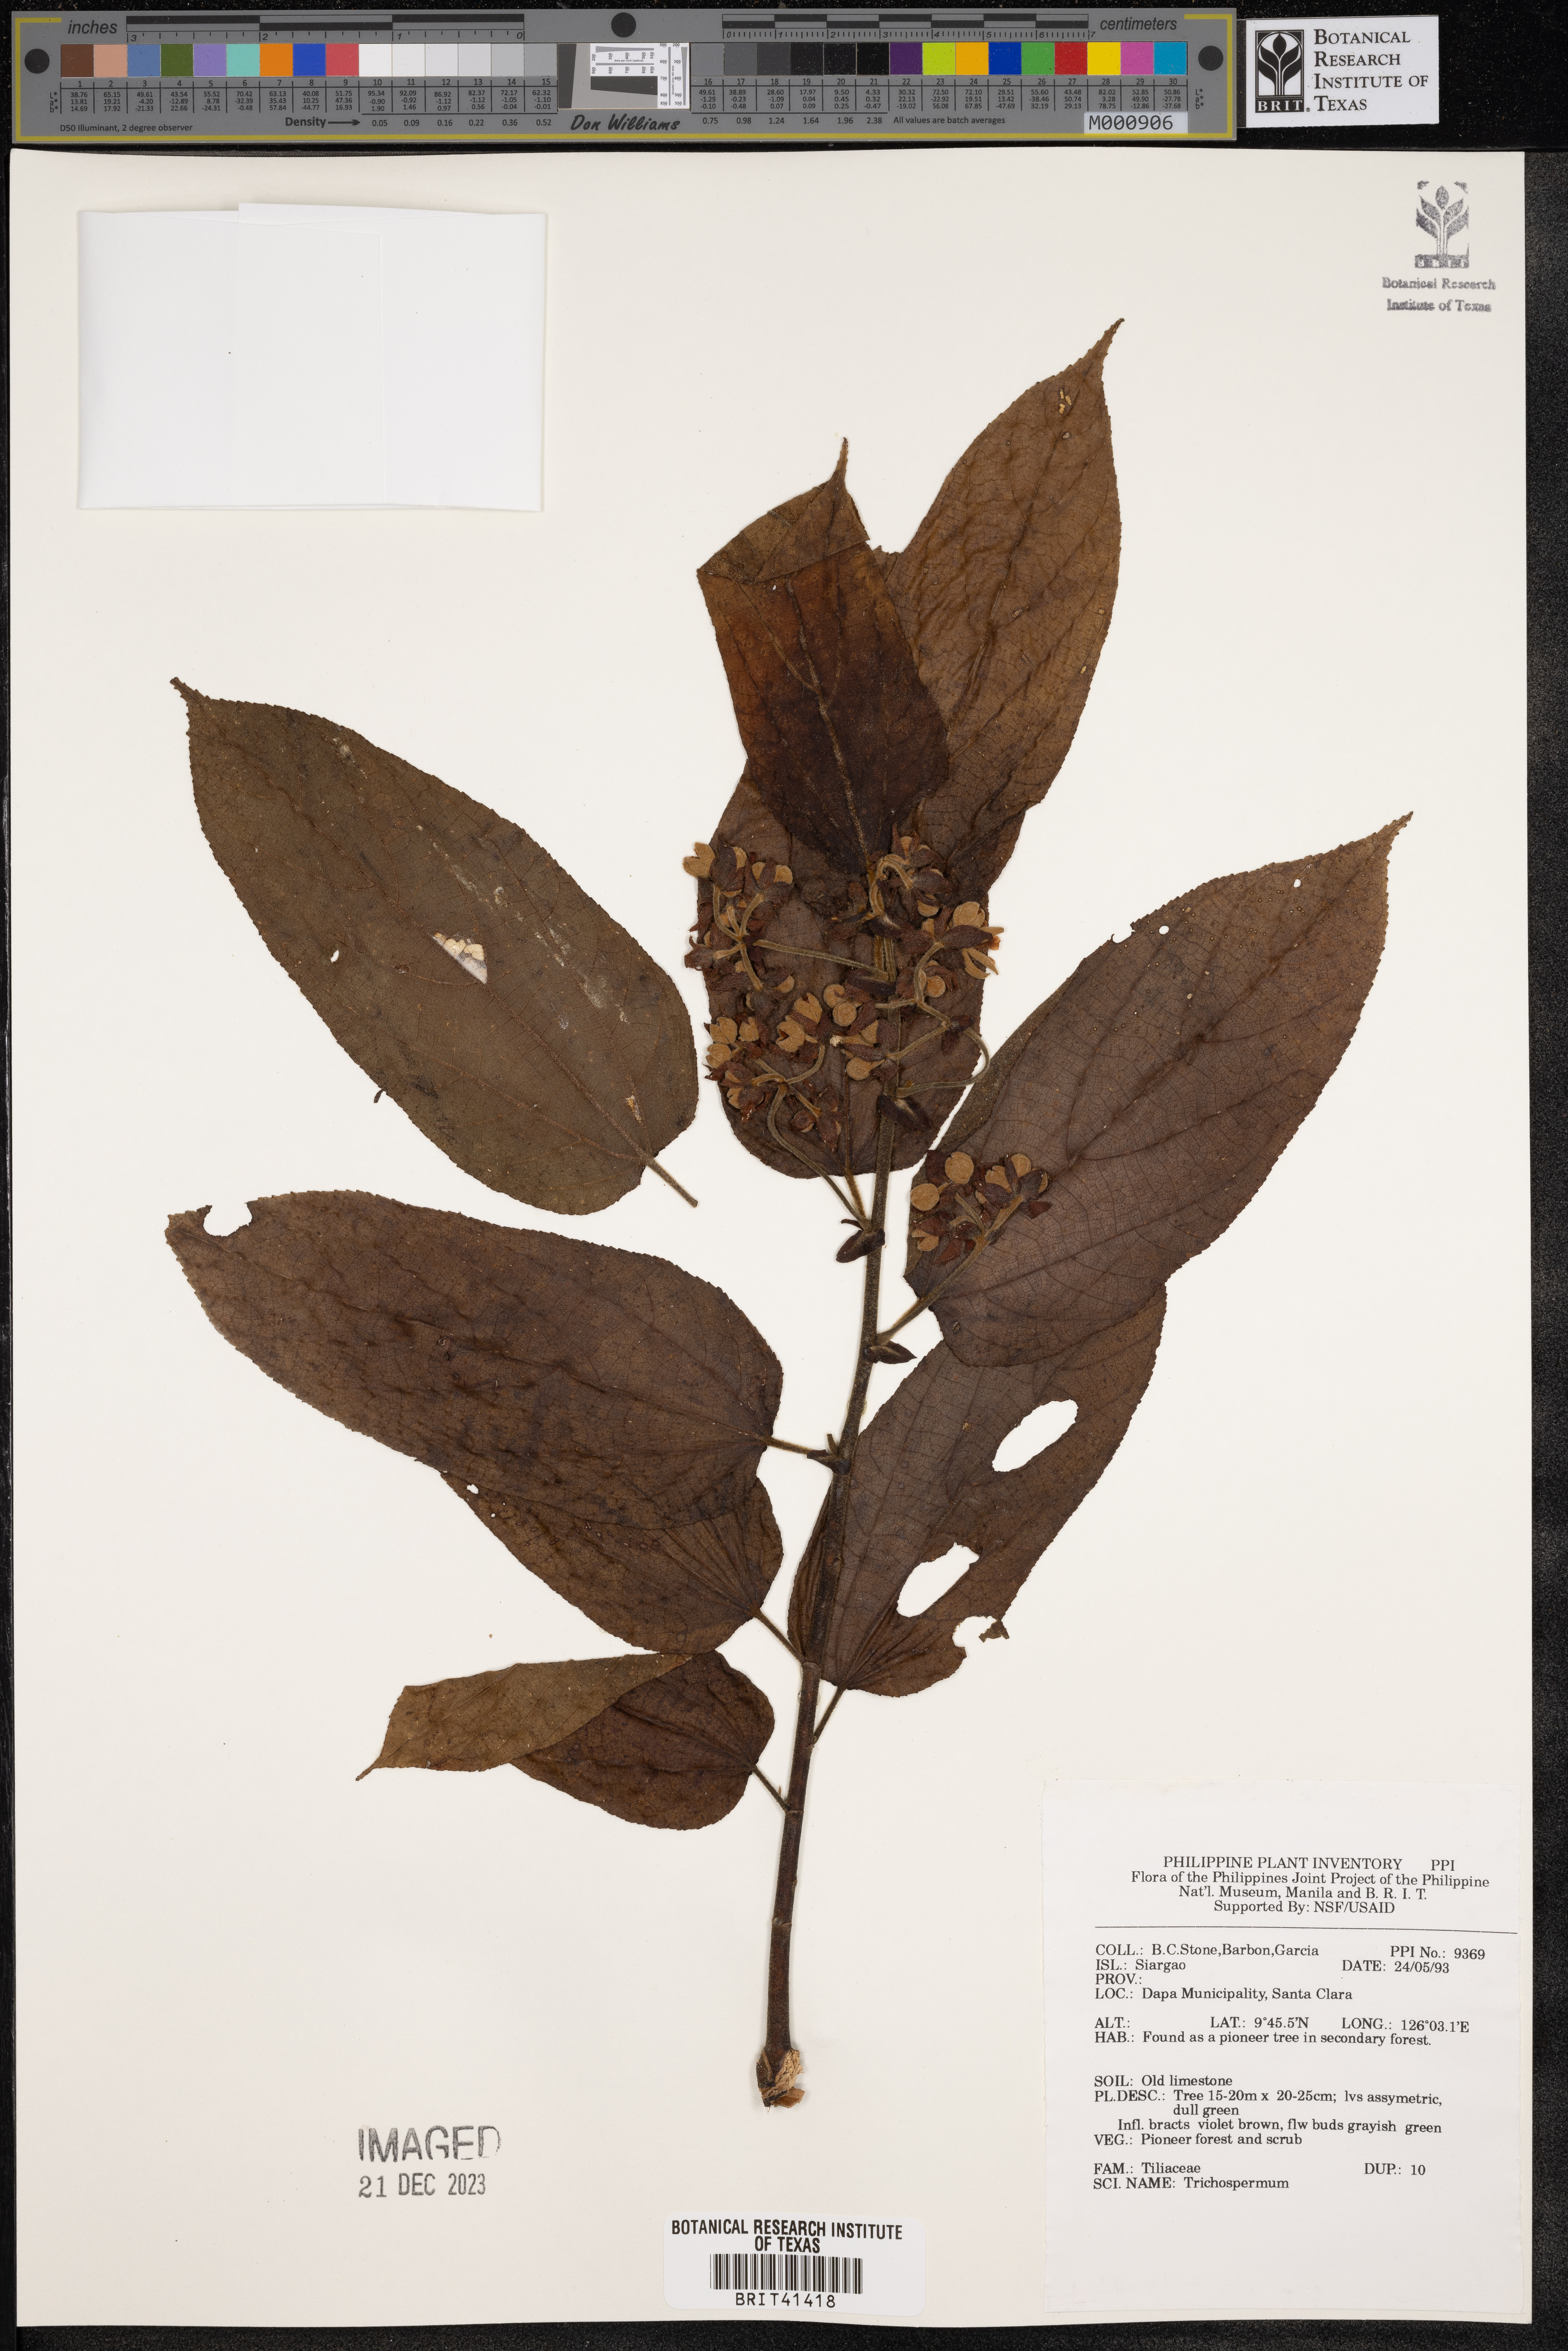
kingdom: Plantae
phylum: Tracheophyta
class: Magnoliopsida
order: Malvales
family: Malvaceae
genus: Trichospermum
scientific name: Trichospermum
